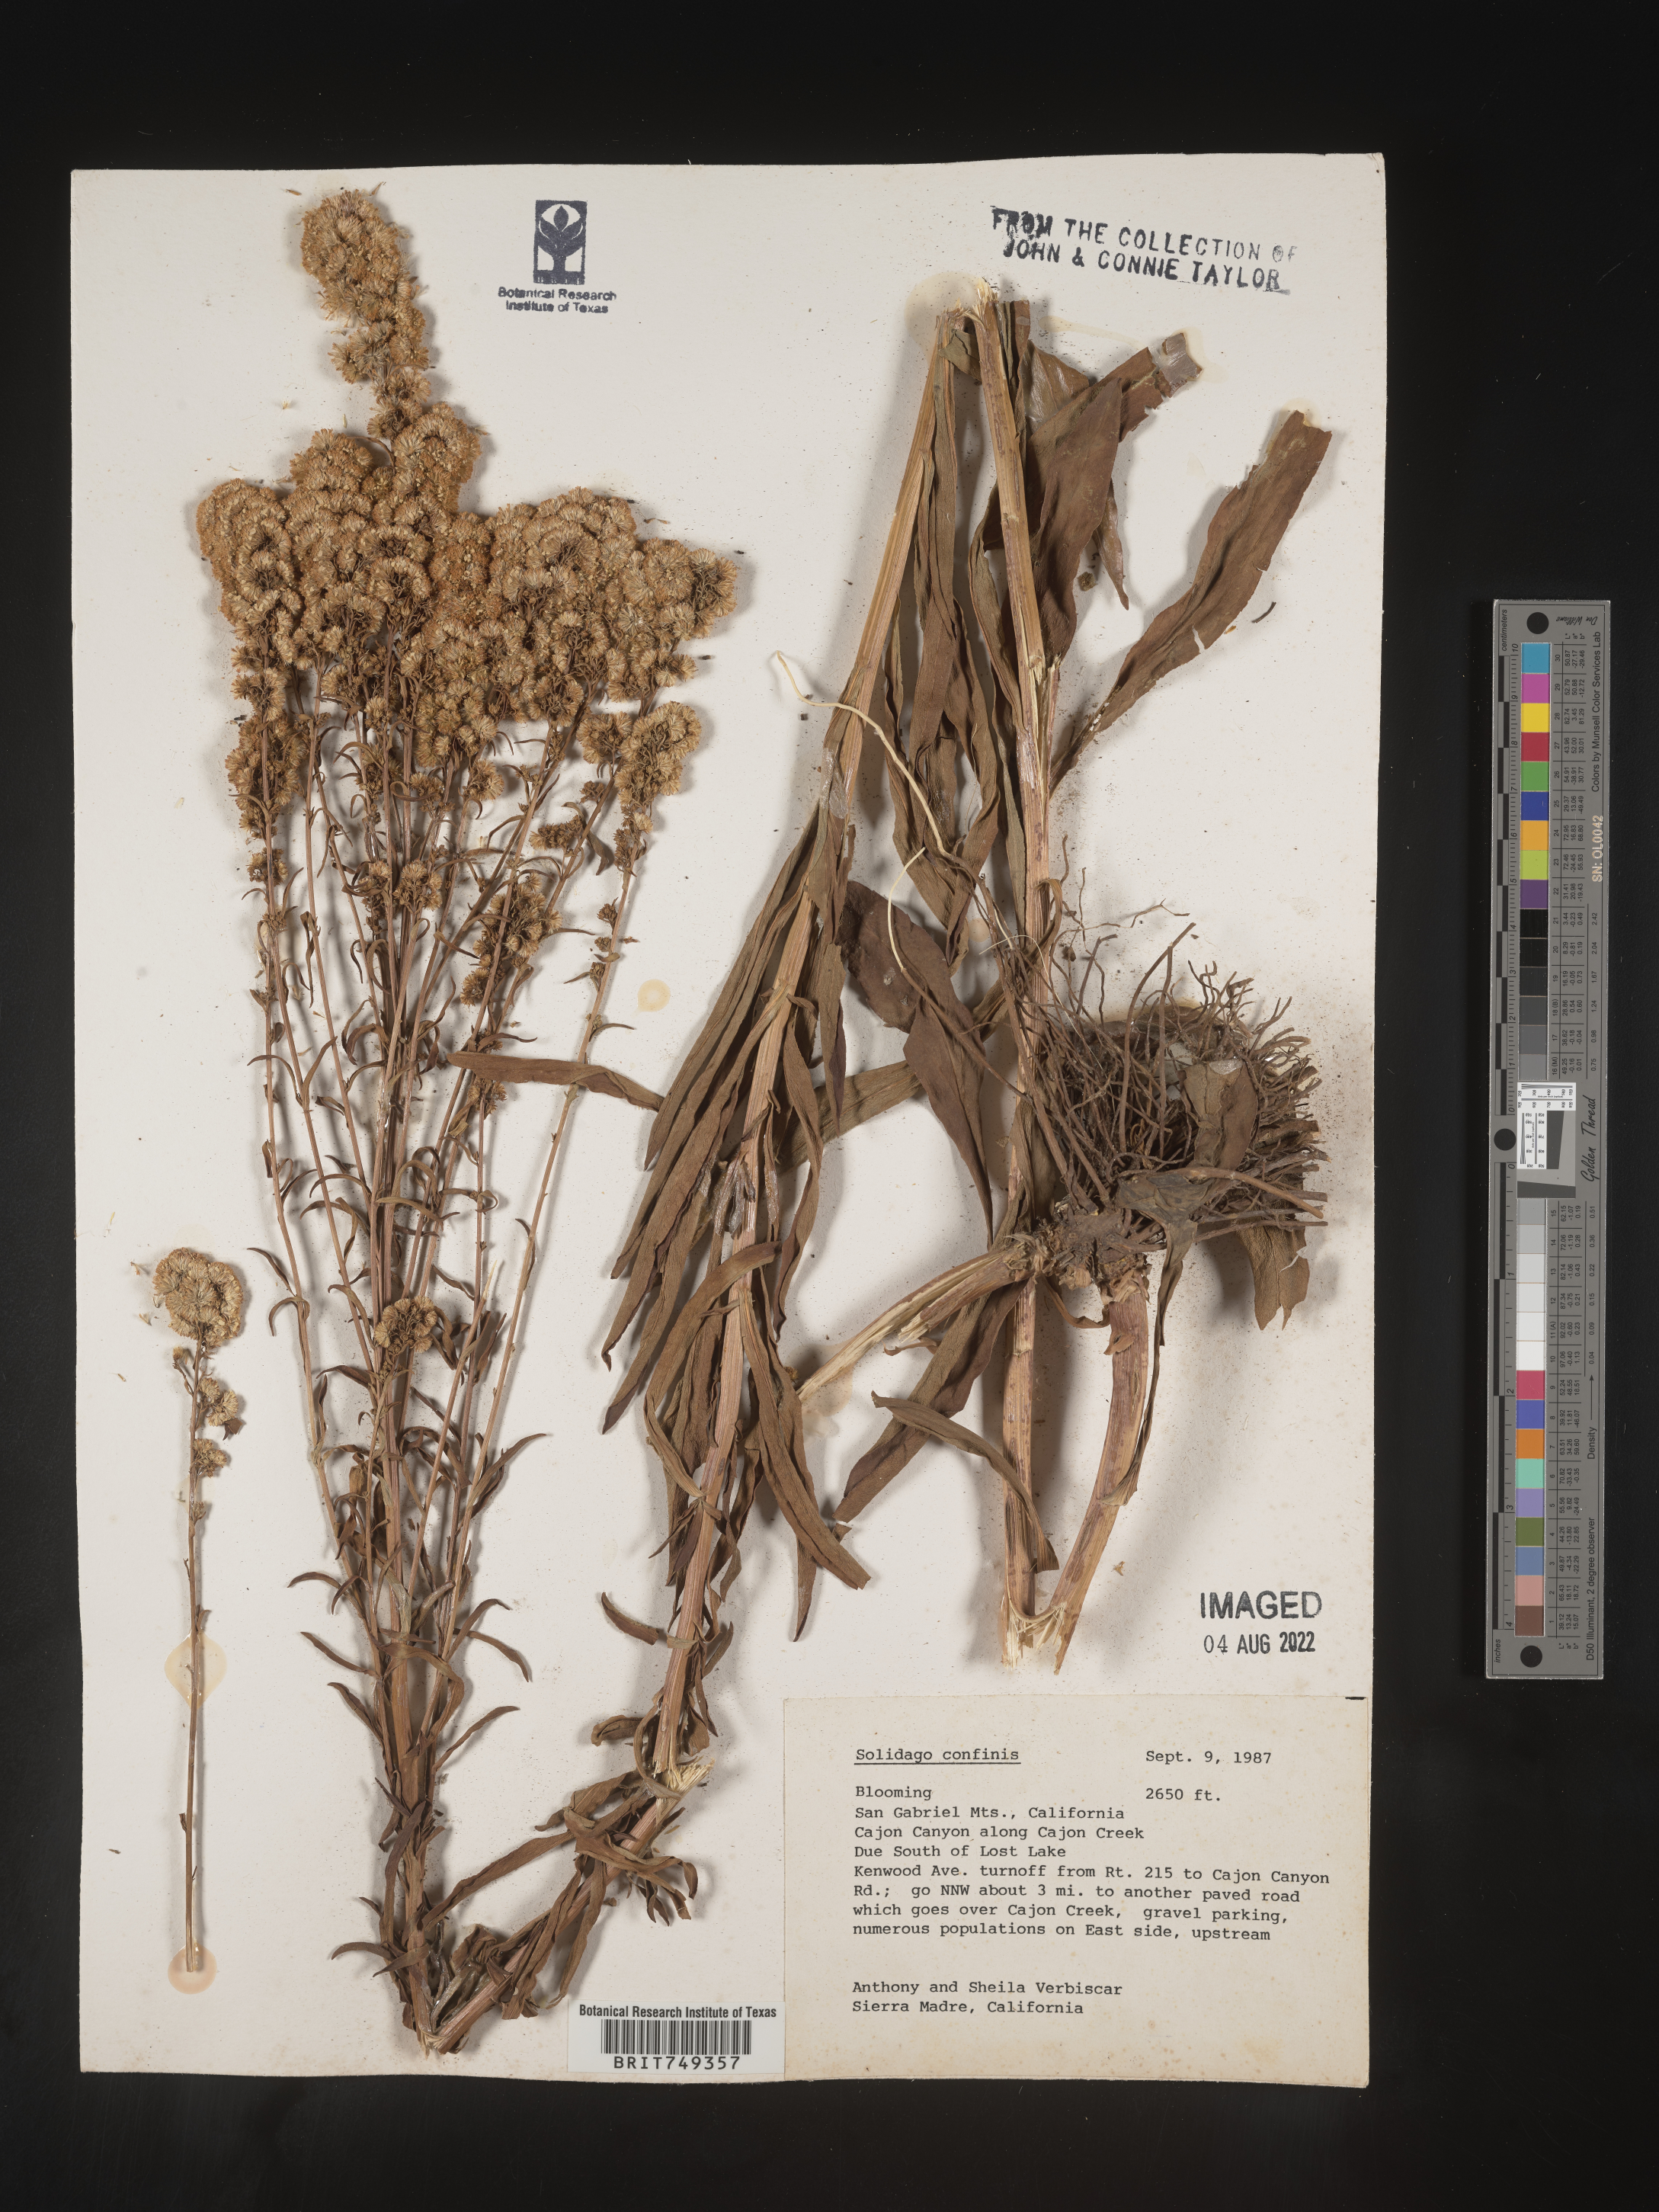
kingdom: Plantae
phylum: Tracheophyta
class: Magnoliopsida
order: Asterales
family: Asteraceae
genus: Solidago
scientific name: Solidago confinis
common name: Southern goldenrod
